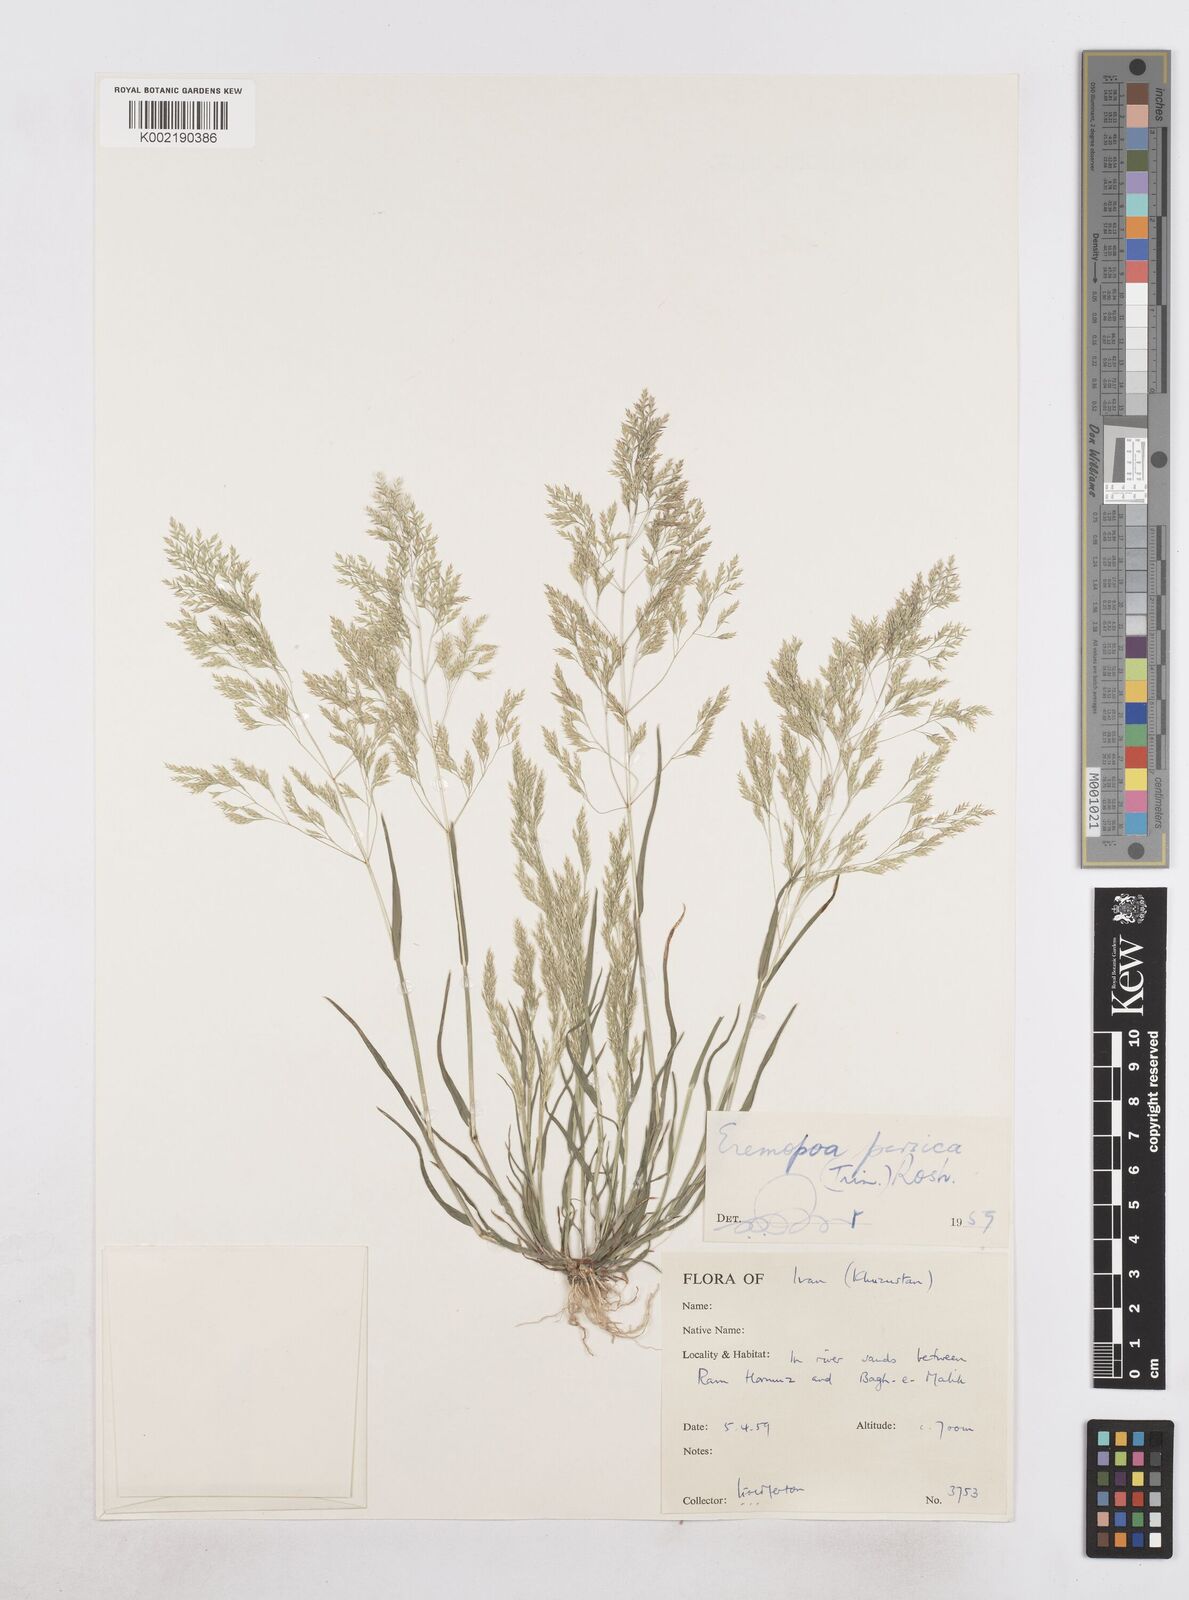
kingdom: Plantae
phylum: Tracheophyta
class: Liliopsida
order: Poales
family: Poaceae
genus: Poa
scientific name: Poa persica
